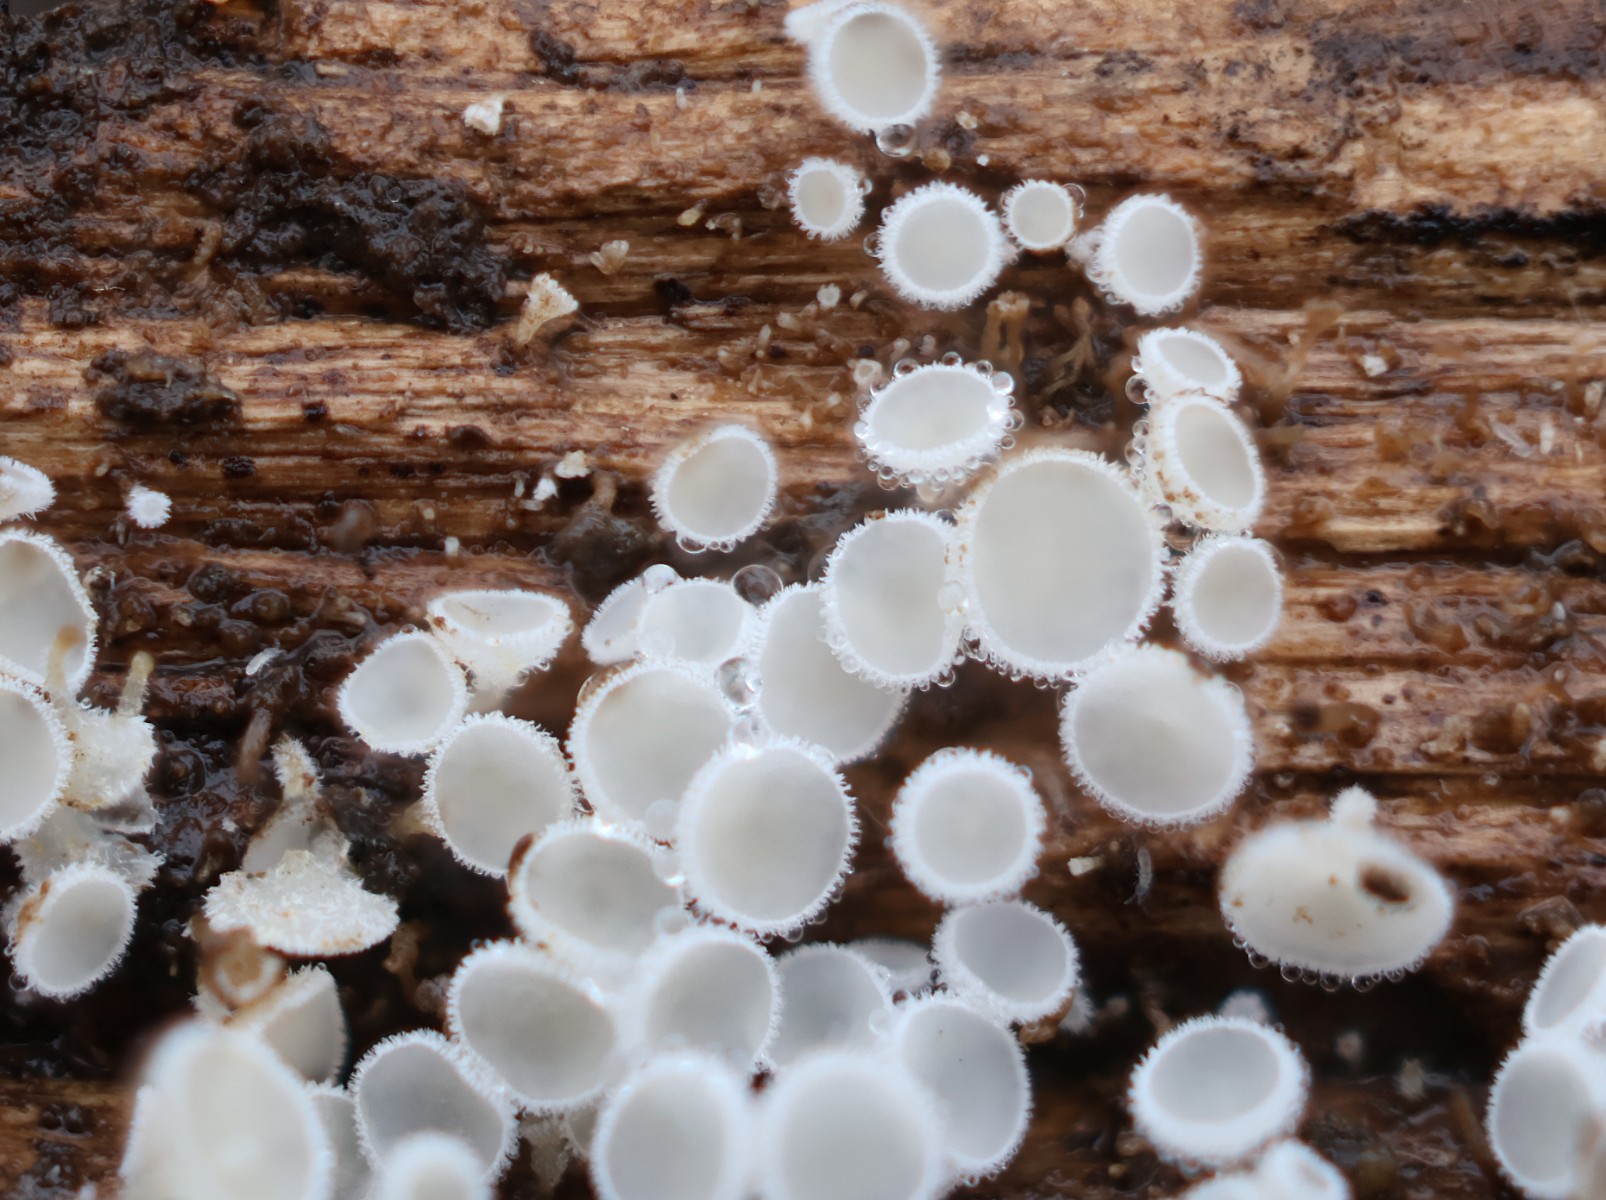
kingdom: Fungi
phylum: Ascomycota
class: Leotiomycetes
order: Helotiales
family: Lachnaceae
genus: Lachnum
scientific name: Lachnum
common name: frynseskive
